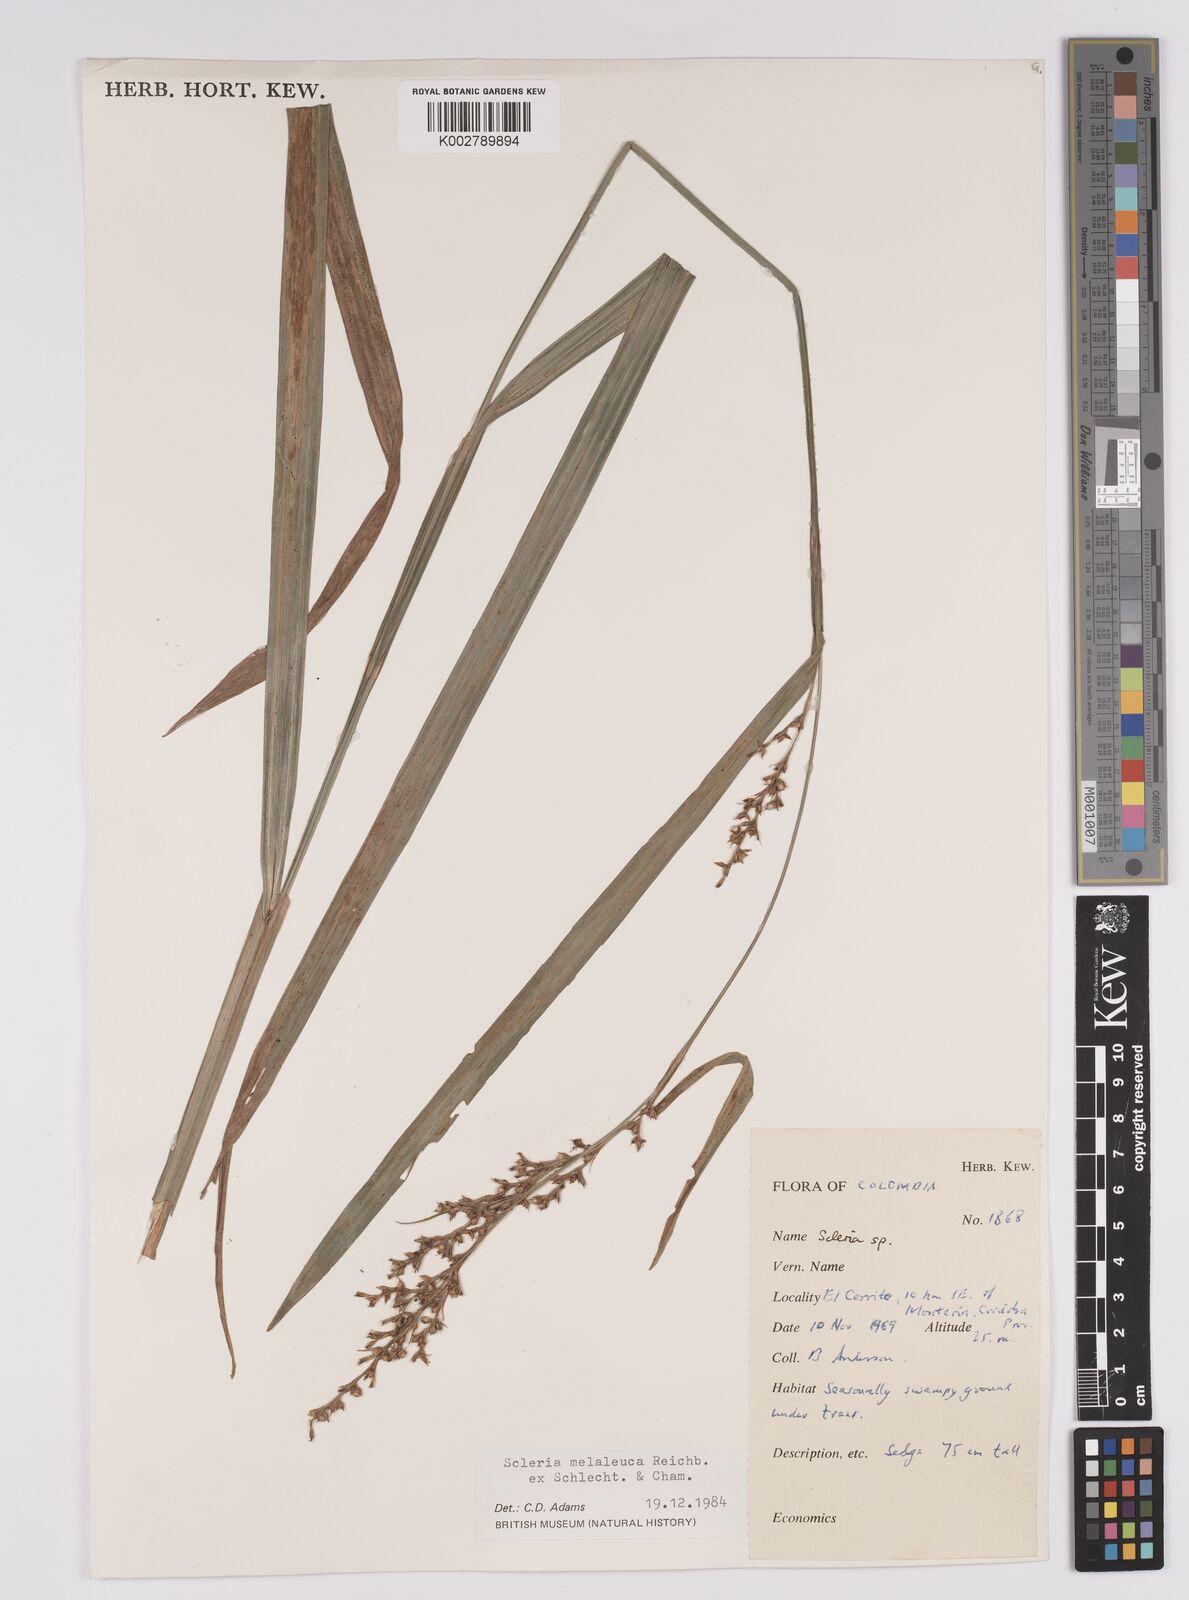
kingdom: Plantae
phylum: Tracheophyta
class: Liliopsida
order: Poales
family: Cyperaceae
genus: Scleria
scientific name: Scleria gaertneri
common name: Cortadera blanca
